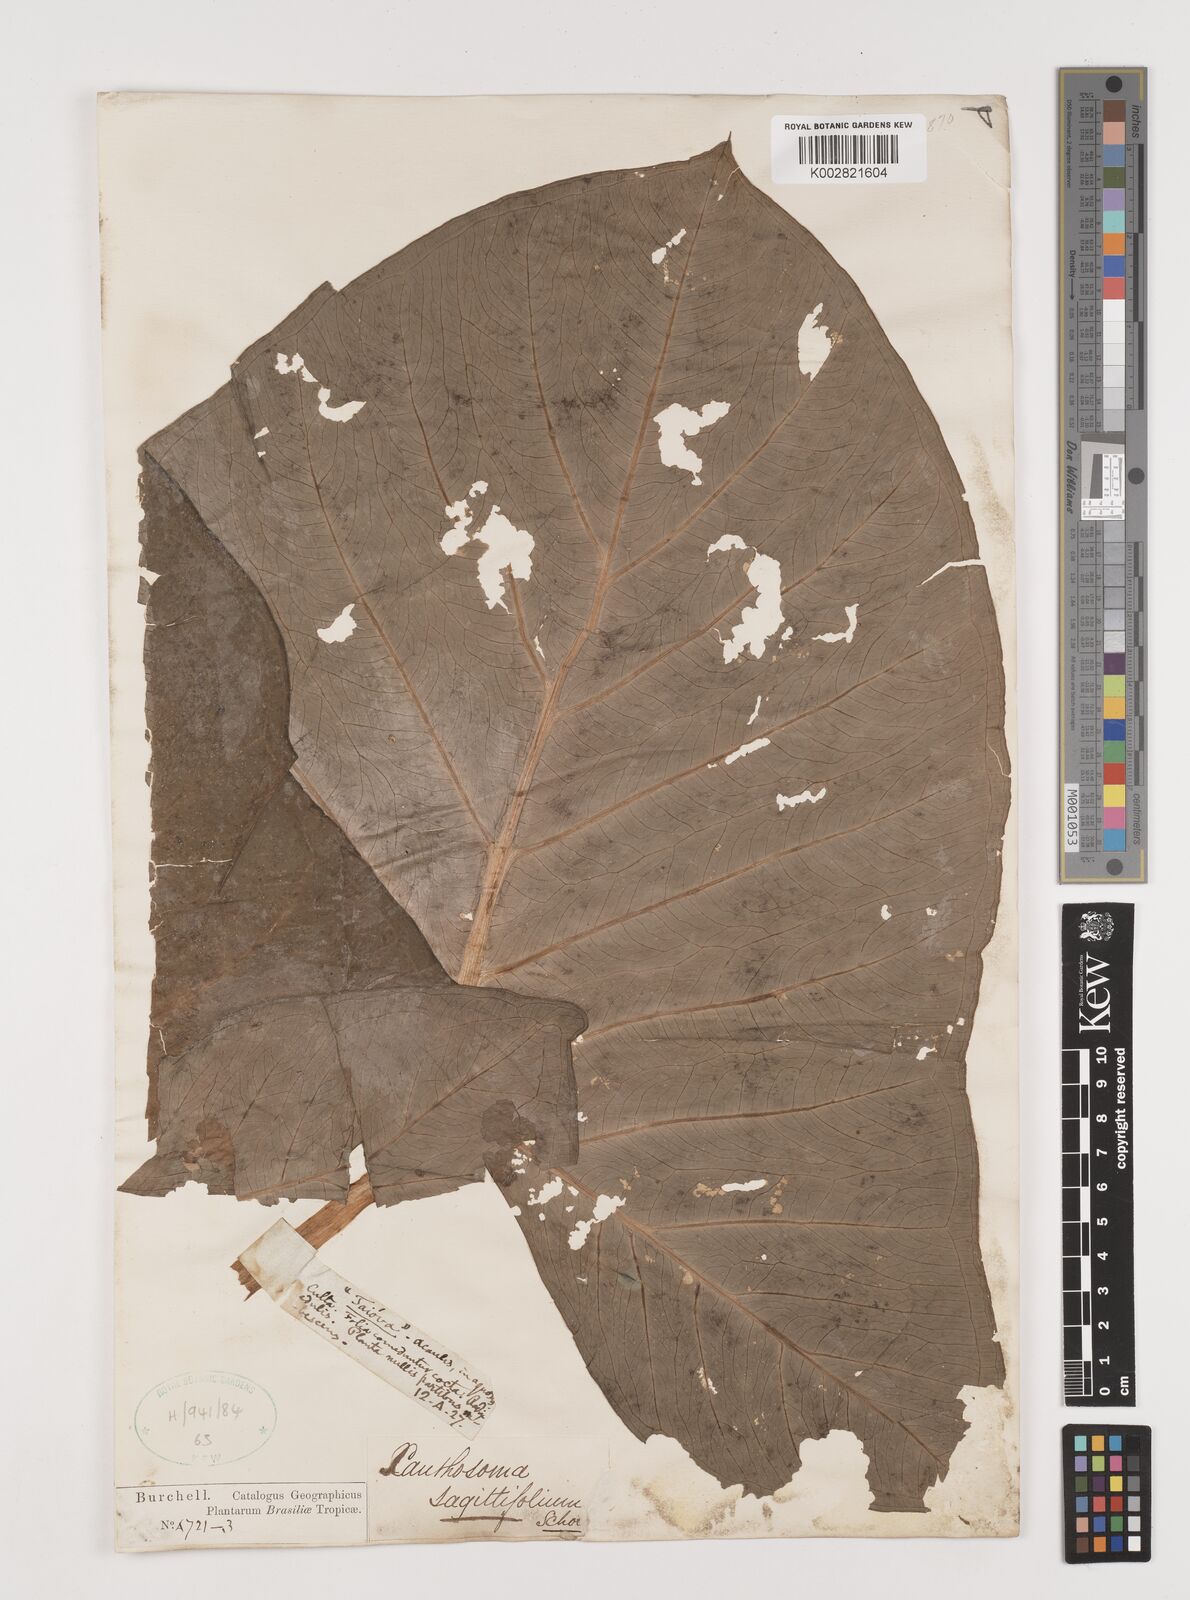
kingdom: Plantae
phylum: Tracheophyta
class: Liliopsida
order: Alismatales
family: Araceae
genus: Xanthosoma
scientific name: Xanthosoma sagittifolium
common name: Arrowleaf elephant's ear
